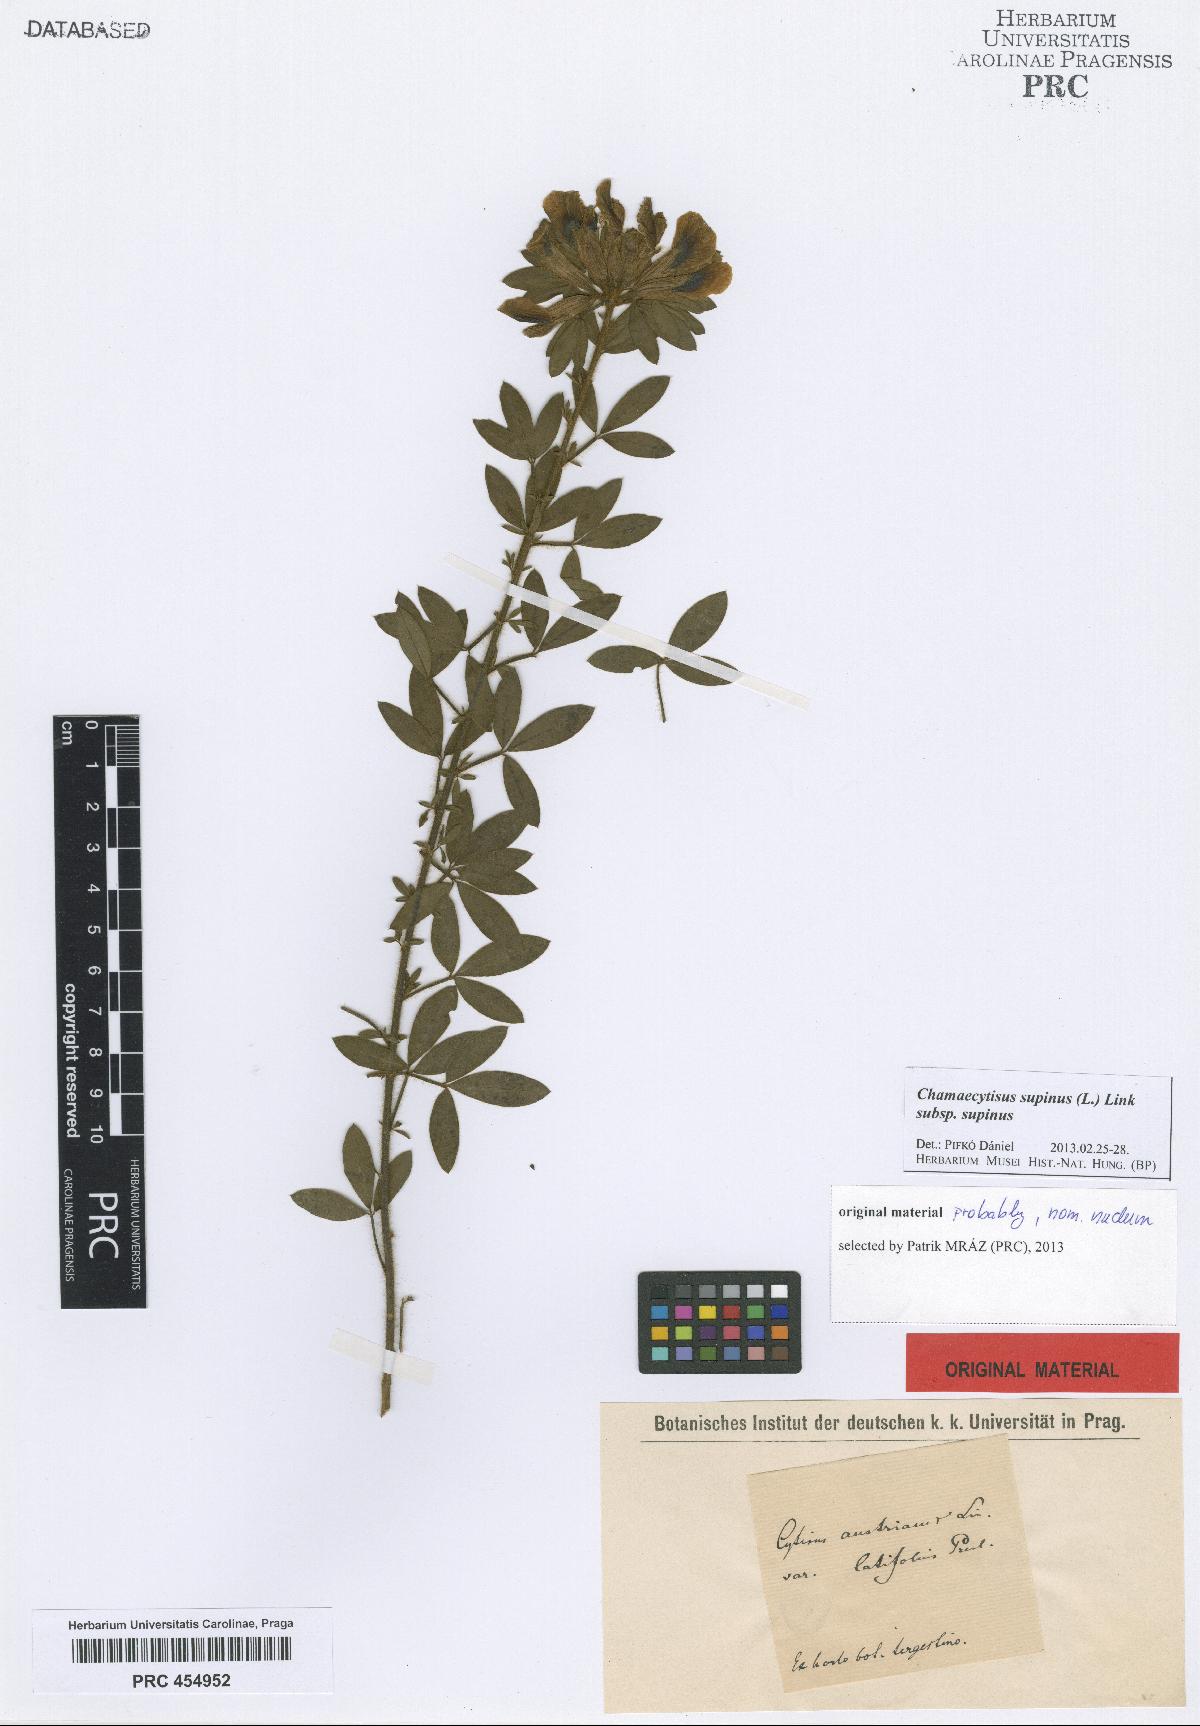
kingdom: Plantae
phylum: Tracheophyta
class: Magnoliopsida
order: Fabales
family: Fabaceae
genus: Chamaecytisus
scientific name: Chamaecytisus supinus
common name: Clustered broom
